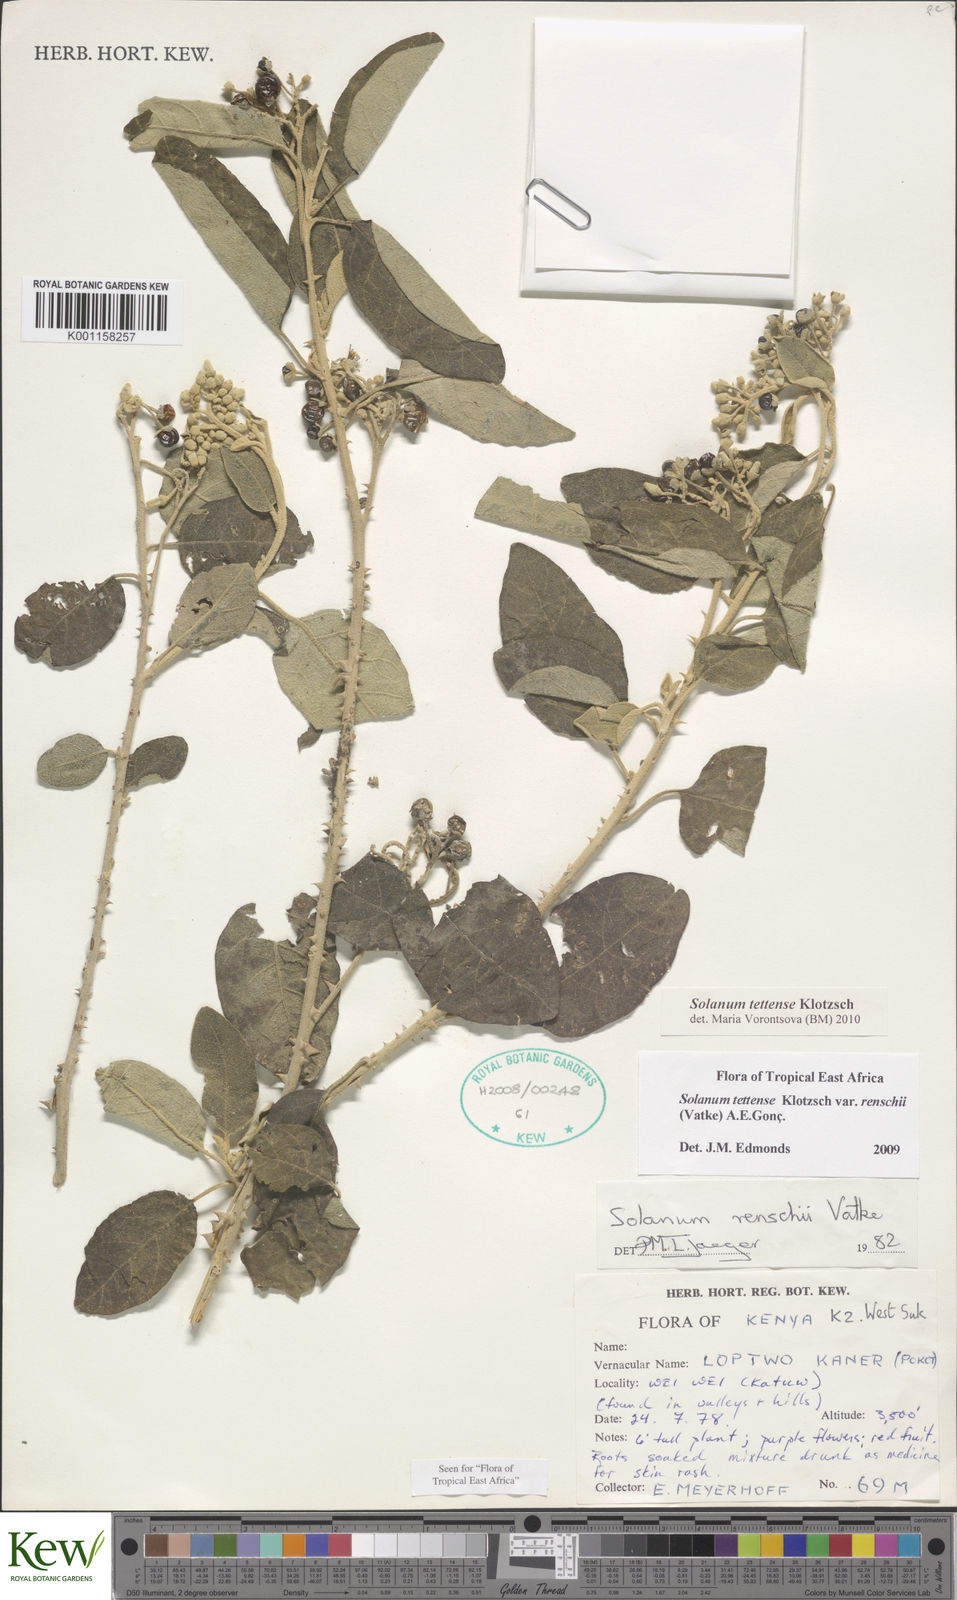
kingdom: Plantae
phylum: Tracheophyta
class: Magnoliopsida
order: Solanales
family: Solanaceae
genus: Solanum
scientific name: Solanum tettense
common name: Mozambique bitter apple
